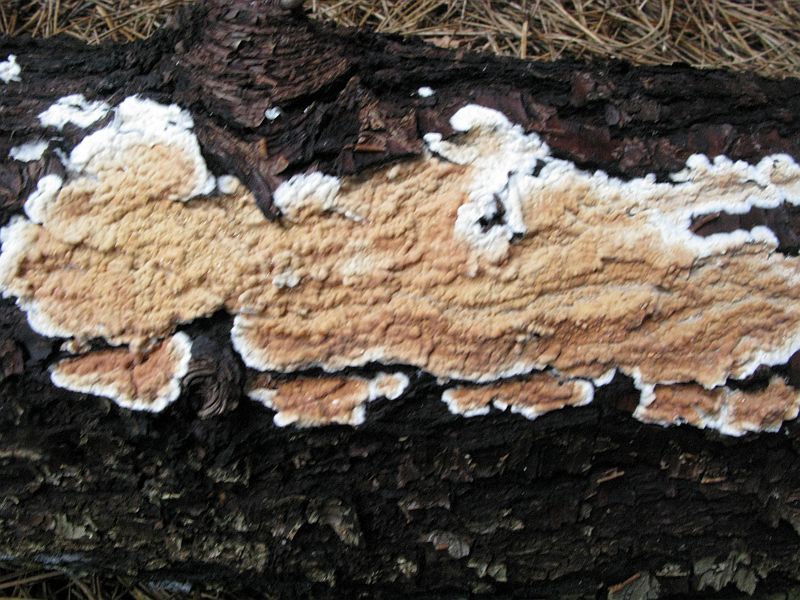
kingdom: Fungi
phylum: Basidiomycota
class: Agaricomycetes
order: Agaricales
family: Radulomycetaceae
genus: Radulomyces
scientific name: Radulomyces confluens
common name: glat naftalinskind
